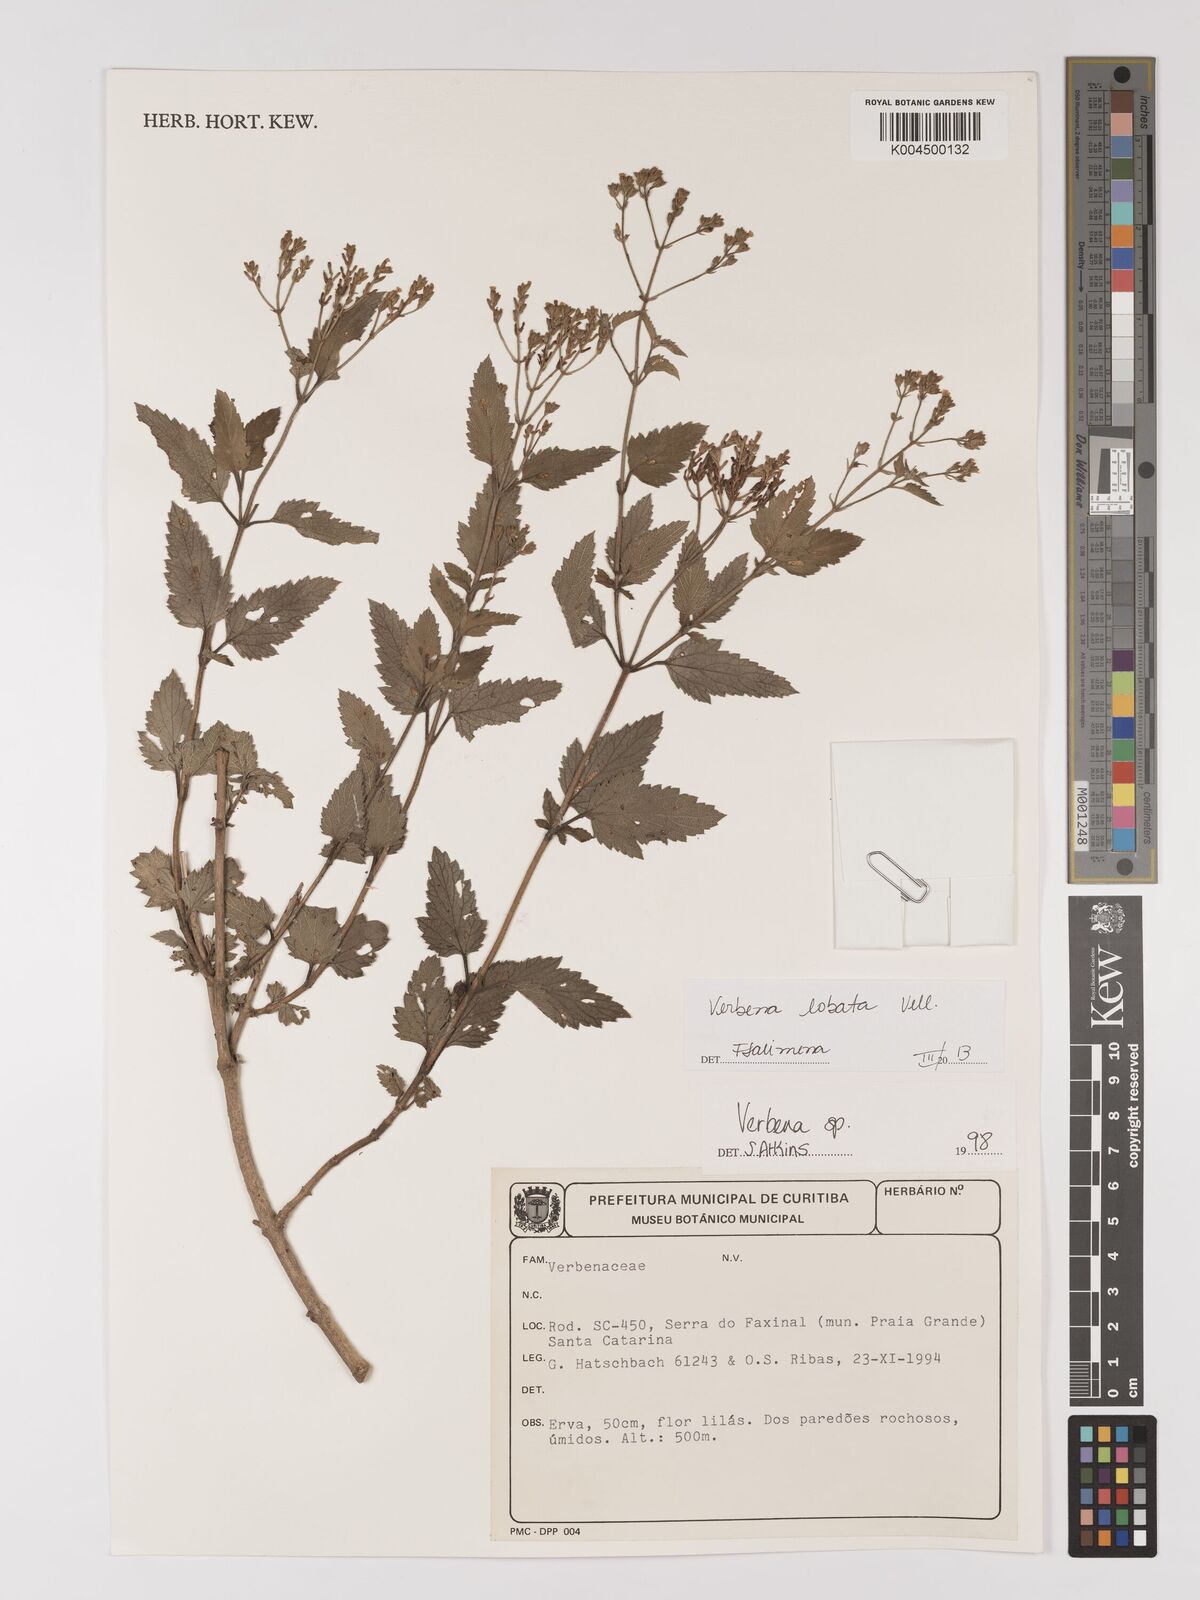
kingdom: Plantae
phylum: Tracheophyta
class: Magnoliopsida
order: Lamiales
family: Verbenaceae
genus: Verbena
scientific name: Verbena lobata
